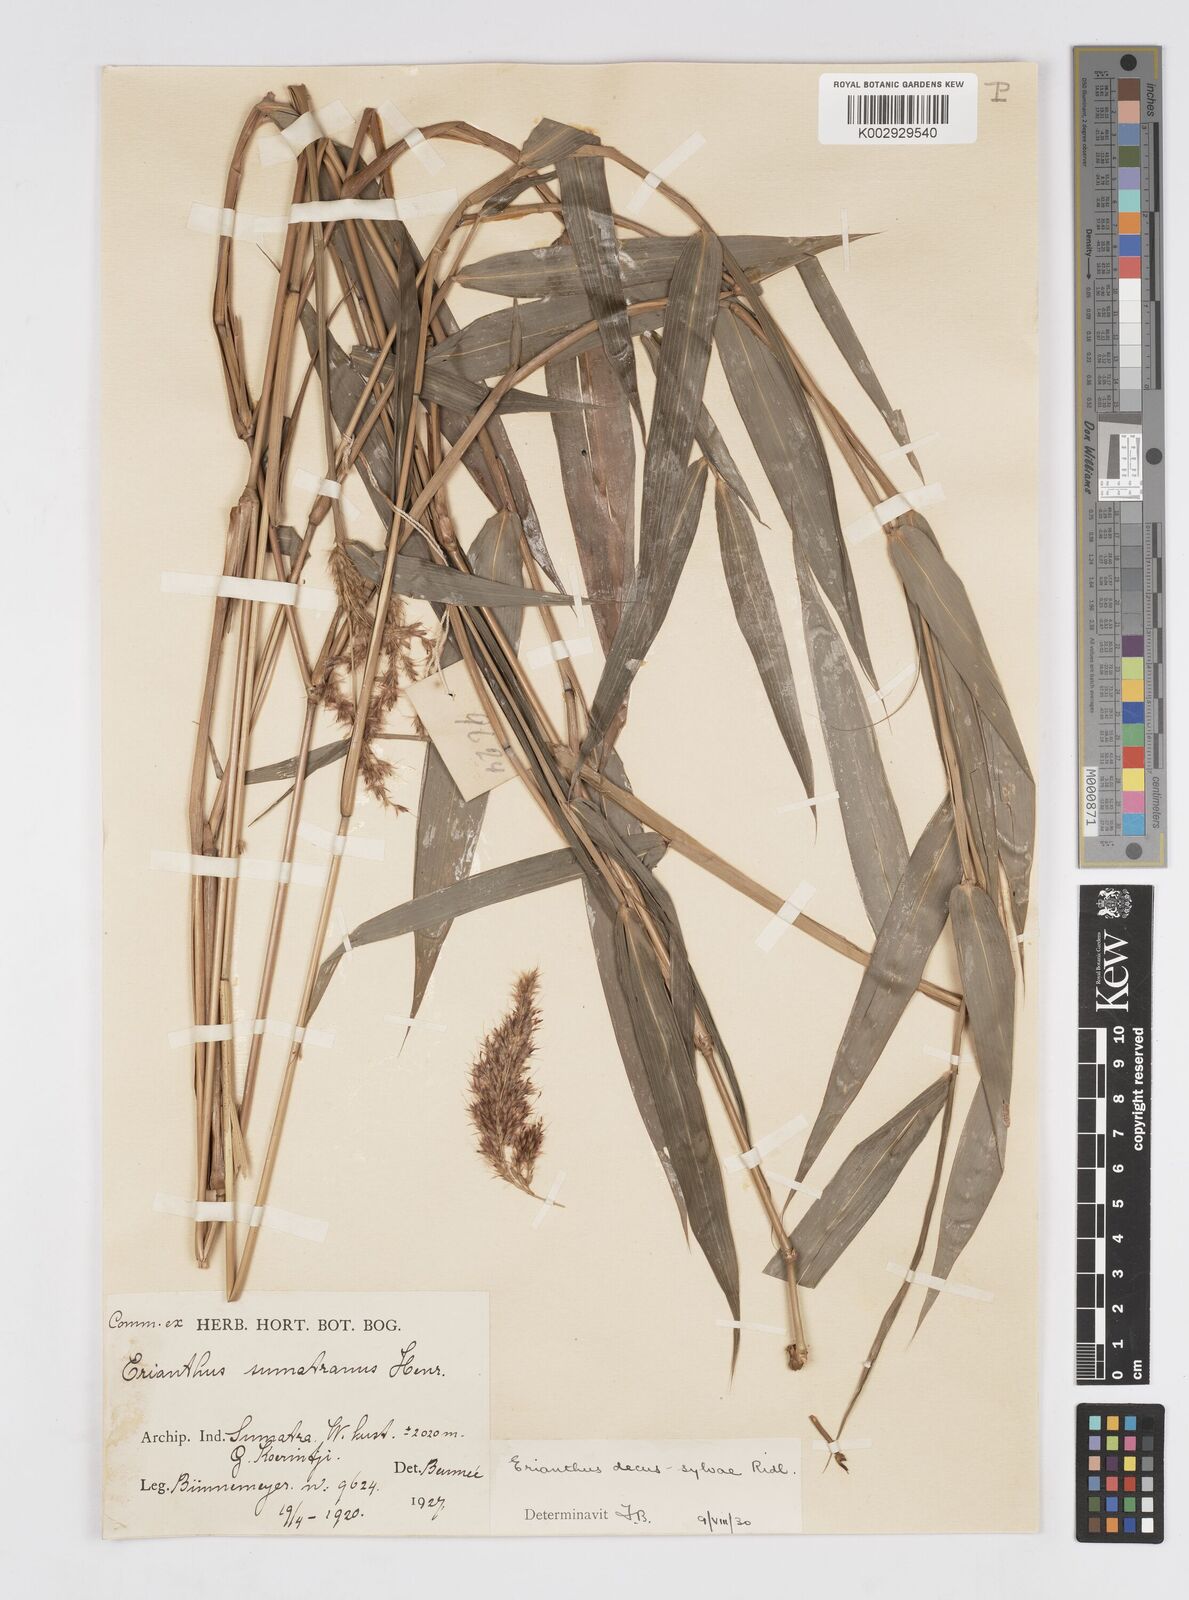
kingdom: Plantae
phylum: Tracheophyta
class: Liliopsida
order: Poales
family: Poaceae
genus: Saccharum
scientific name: Saccharum
